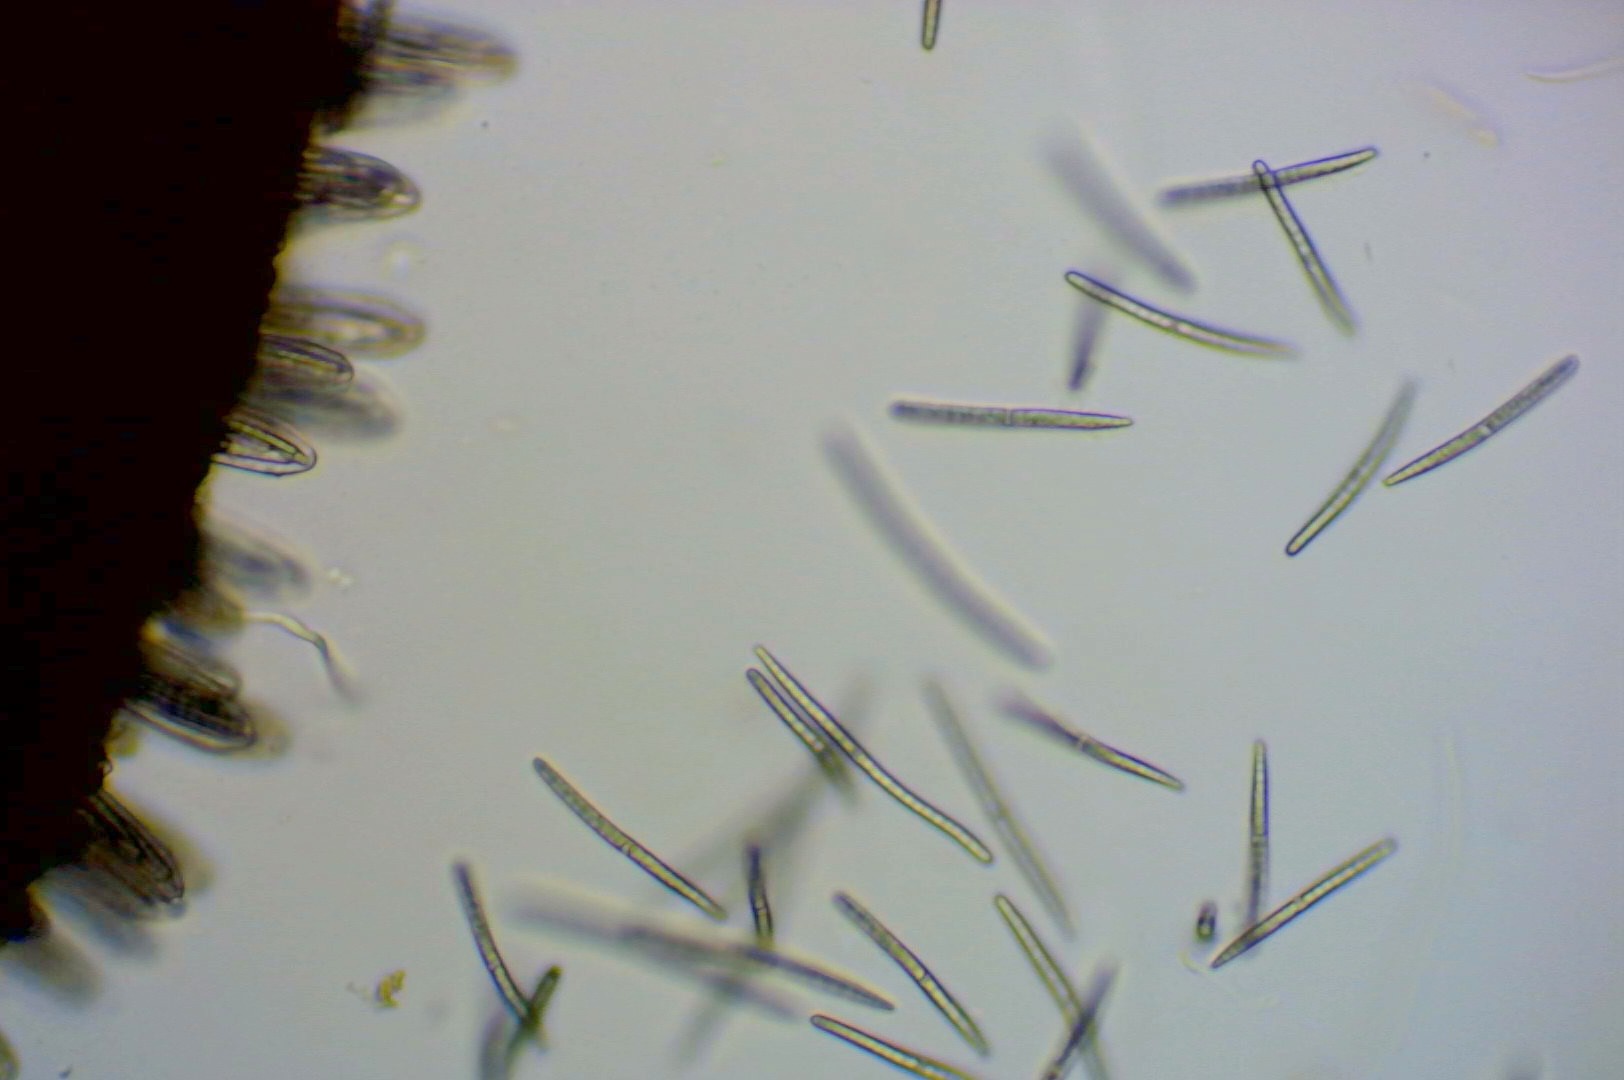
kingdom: Fungi
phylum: Ascomycota
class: Geoglossomycetes
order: Geoglossales
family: Geoglossaceae
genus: Geoglossum
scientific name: Geoglossum fallax
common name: småskællet jordtunge
